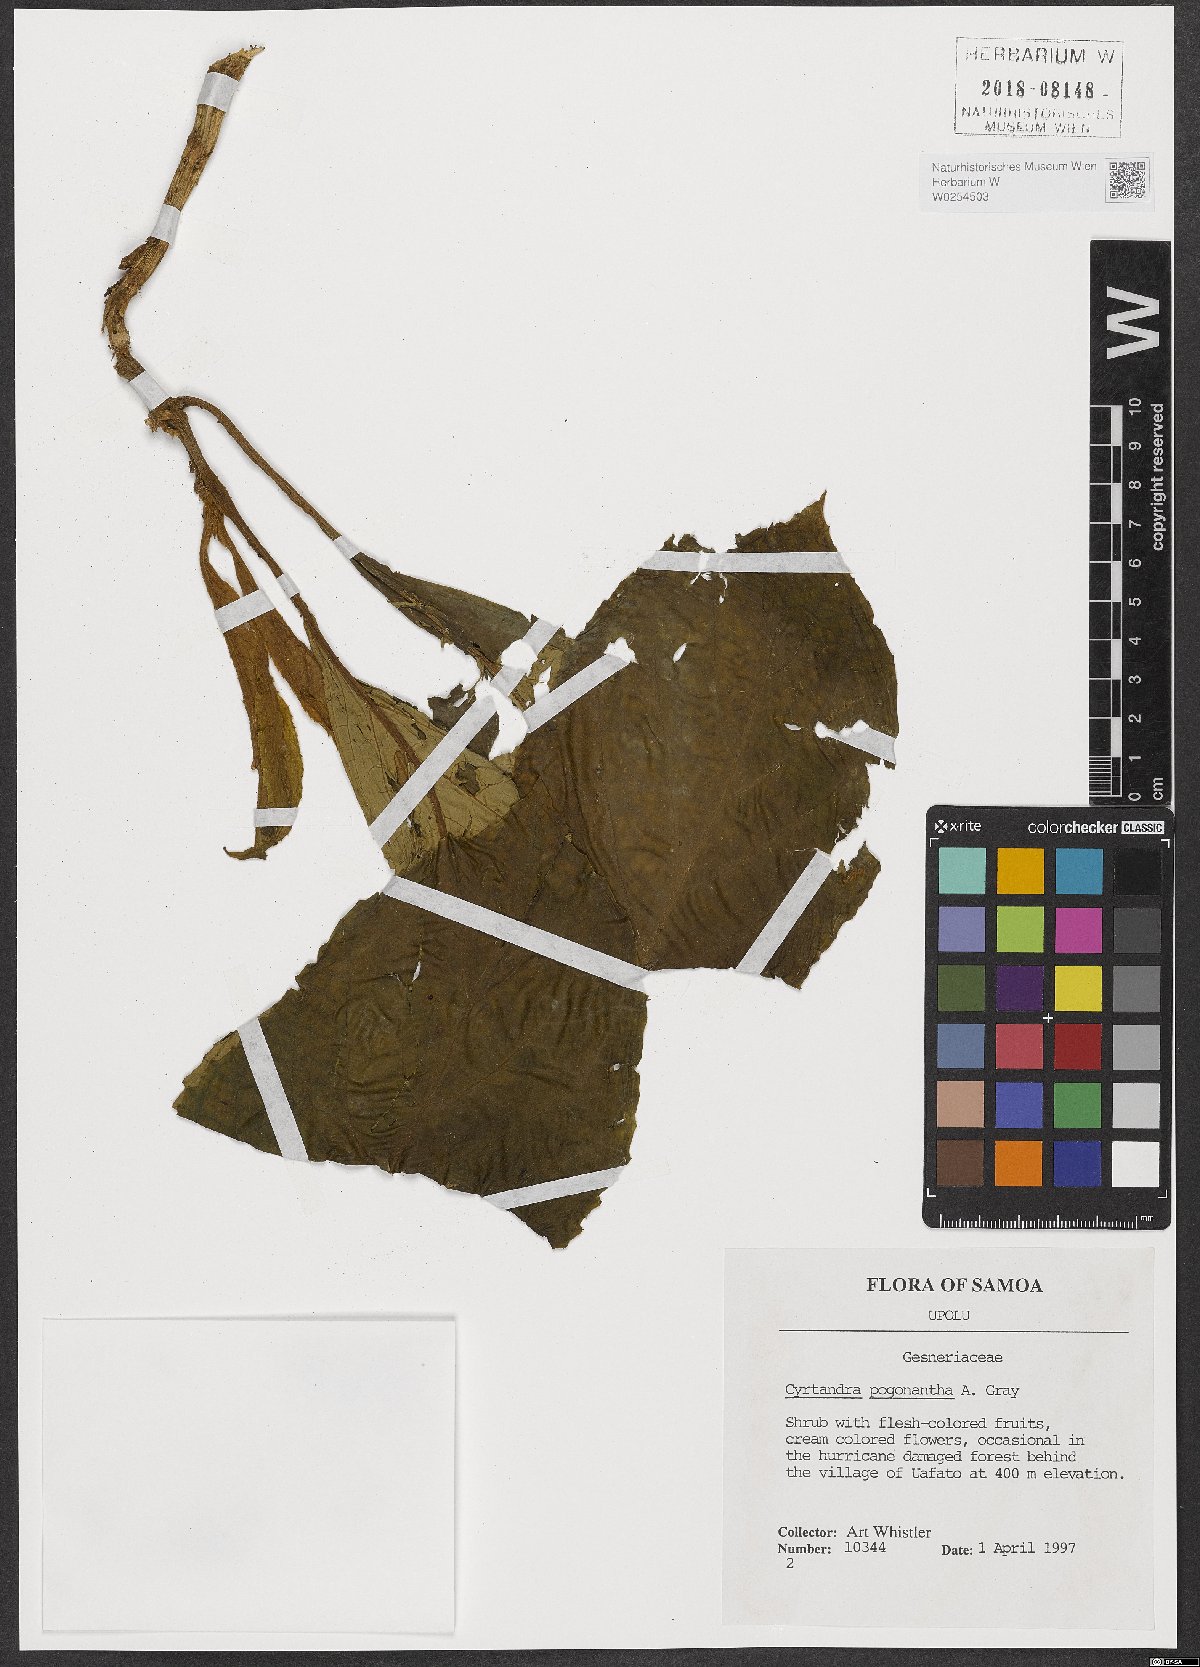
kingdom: Plantae
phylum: Tracheophyta
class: Magnoliopsida
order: Lamiales
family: Gesneriaceae
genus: Cyrtandra
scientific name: Cyrtandra pogonantha
